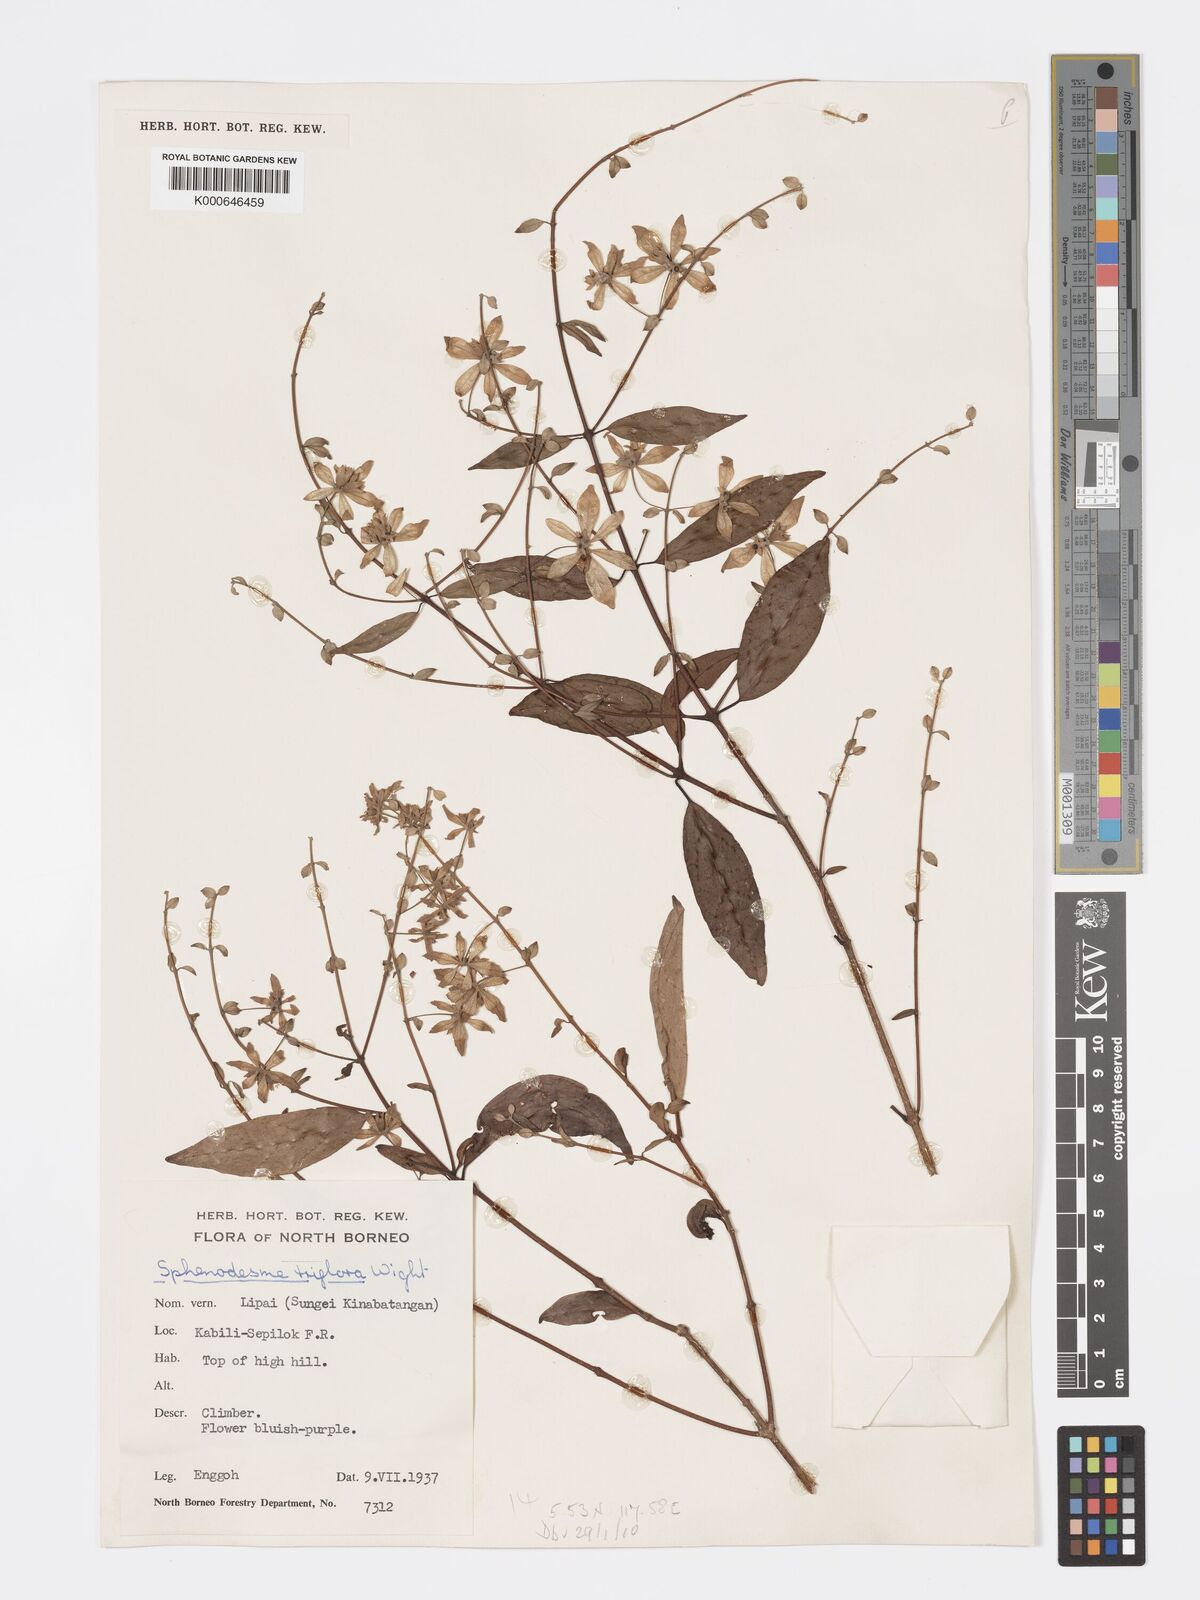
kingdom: Plantae
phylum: Tracheophyta
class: Magnoliopsida
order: Lamiales
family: Lamiaceae
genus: Sphenodesme
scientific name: Sphenodesme
